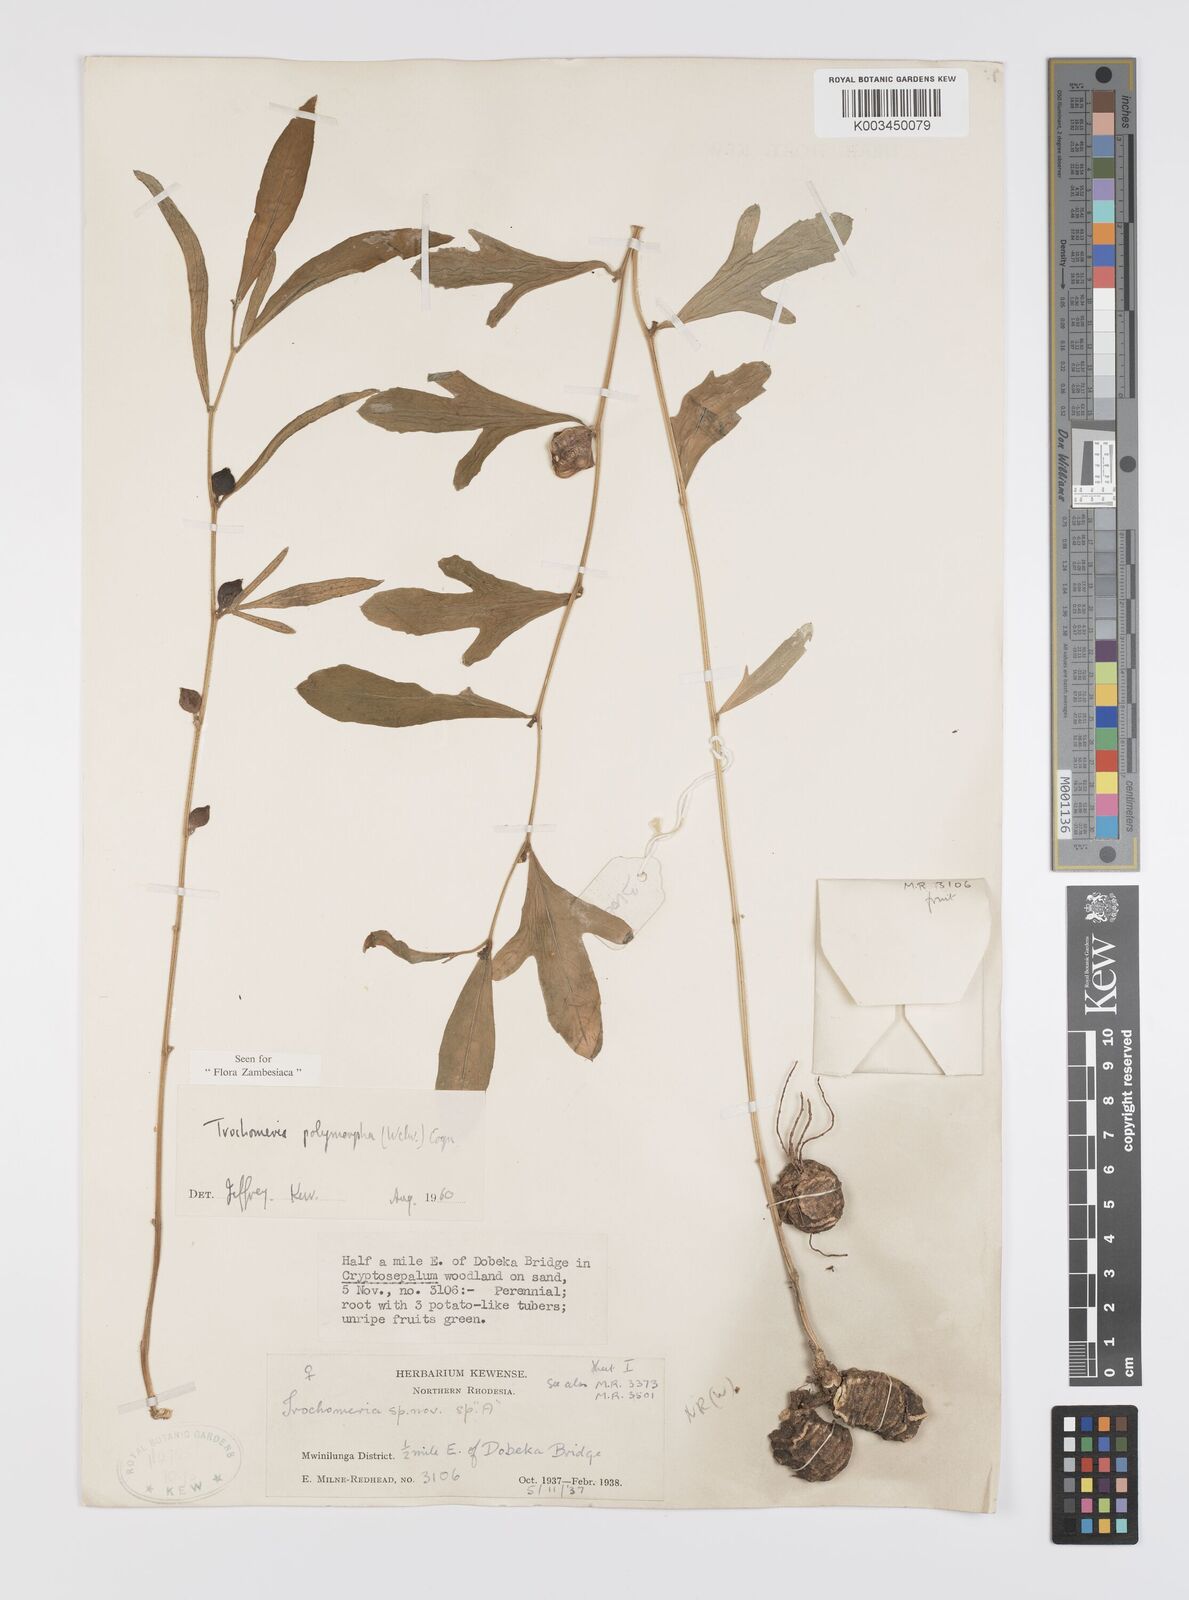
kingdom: Plantae
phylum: Tracheophyta
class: Magnoliopsida
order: Cucurbitales
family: Cucurbitaceae
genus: Trochomeria
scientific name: Trochomeria polymorpha
